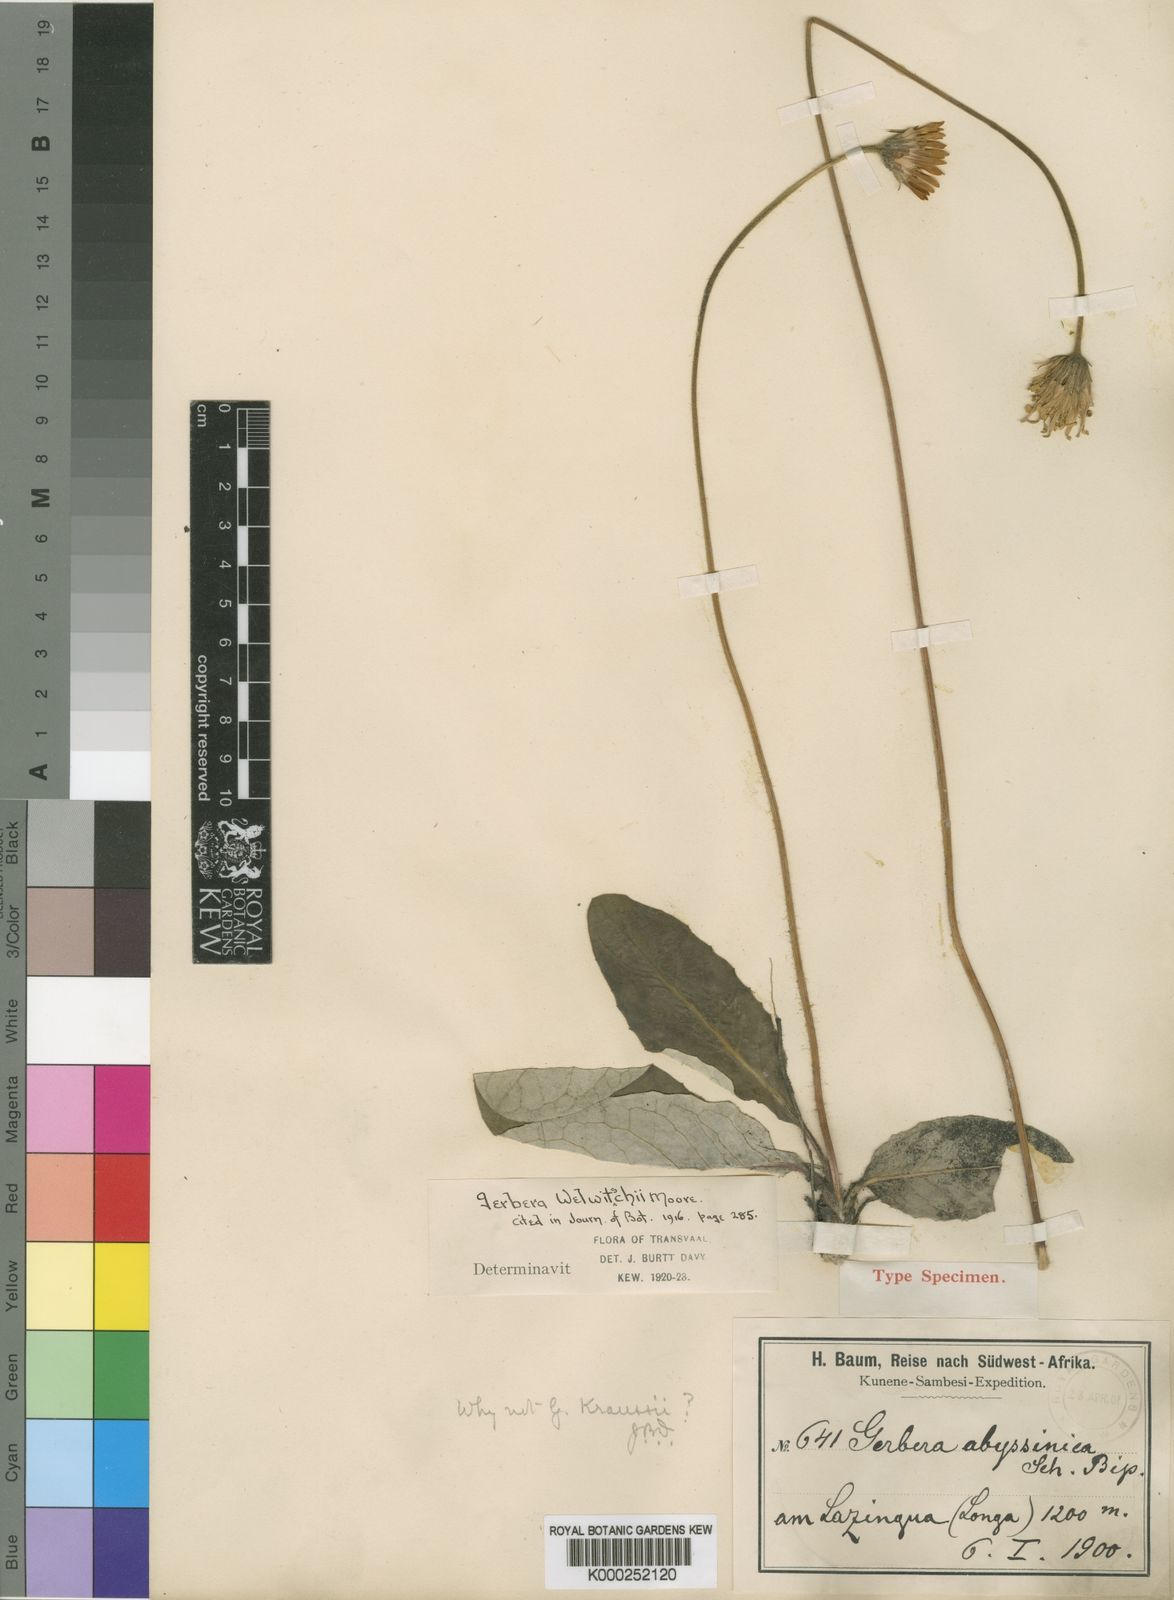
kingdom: Plantae
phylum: Tracheophyta
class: Magnoliopsida
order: Asterales
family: Asteraceae
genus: Gerbera
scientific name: Gerbera ambigua
